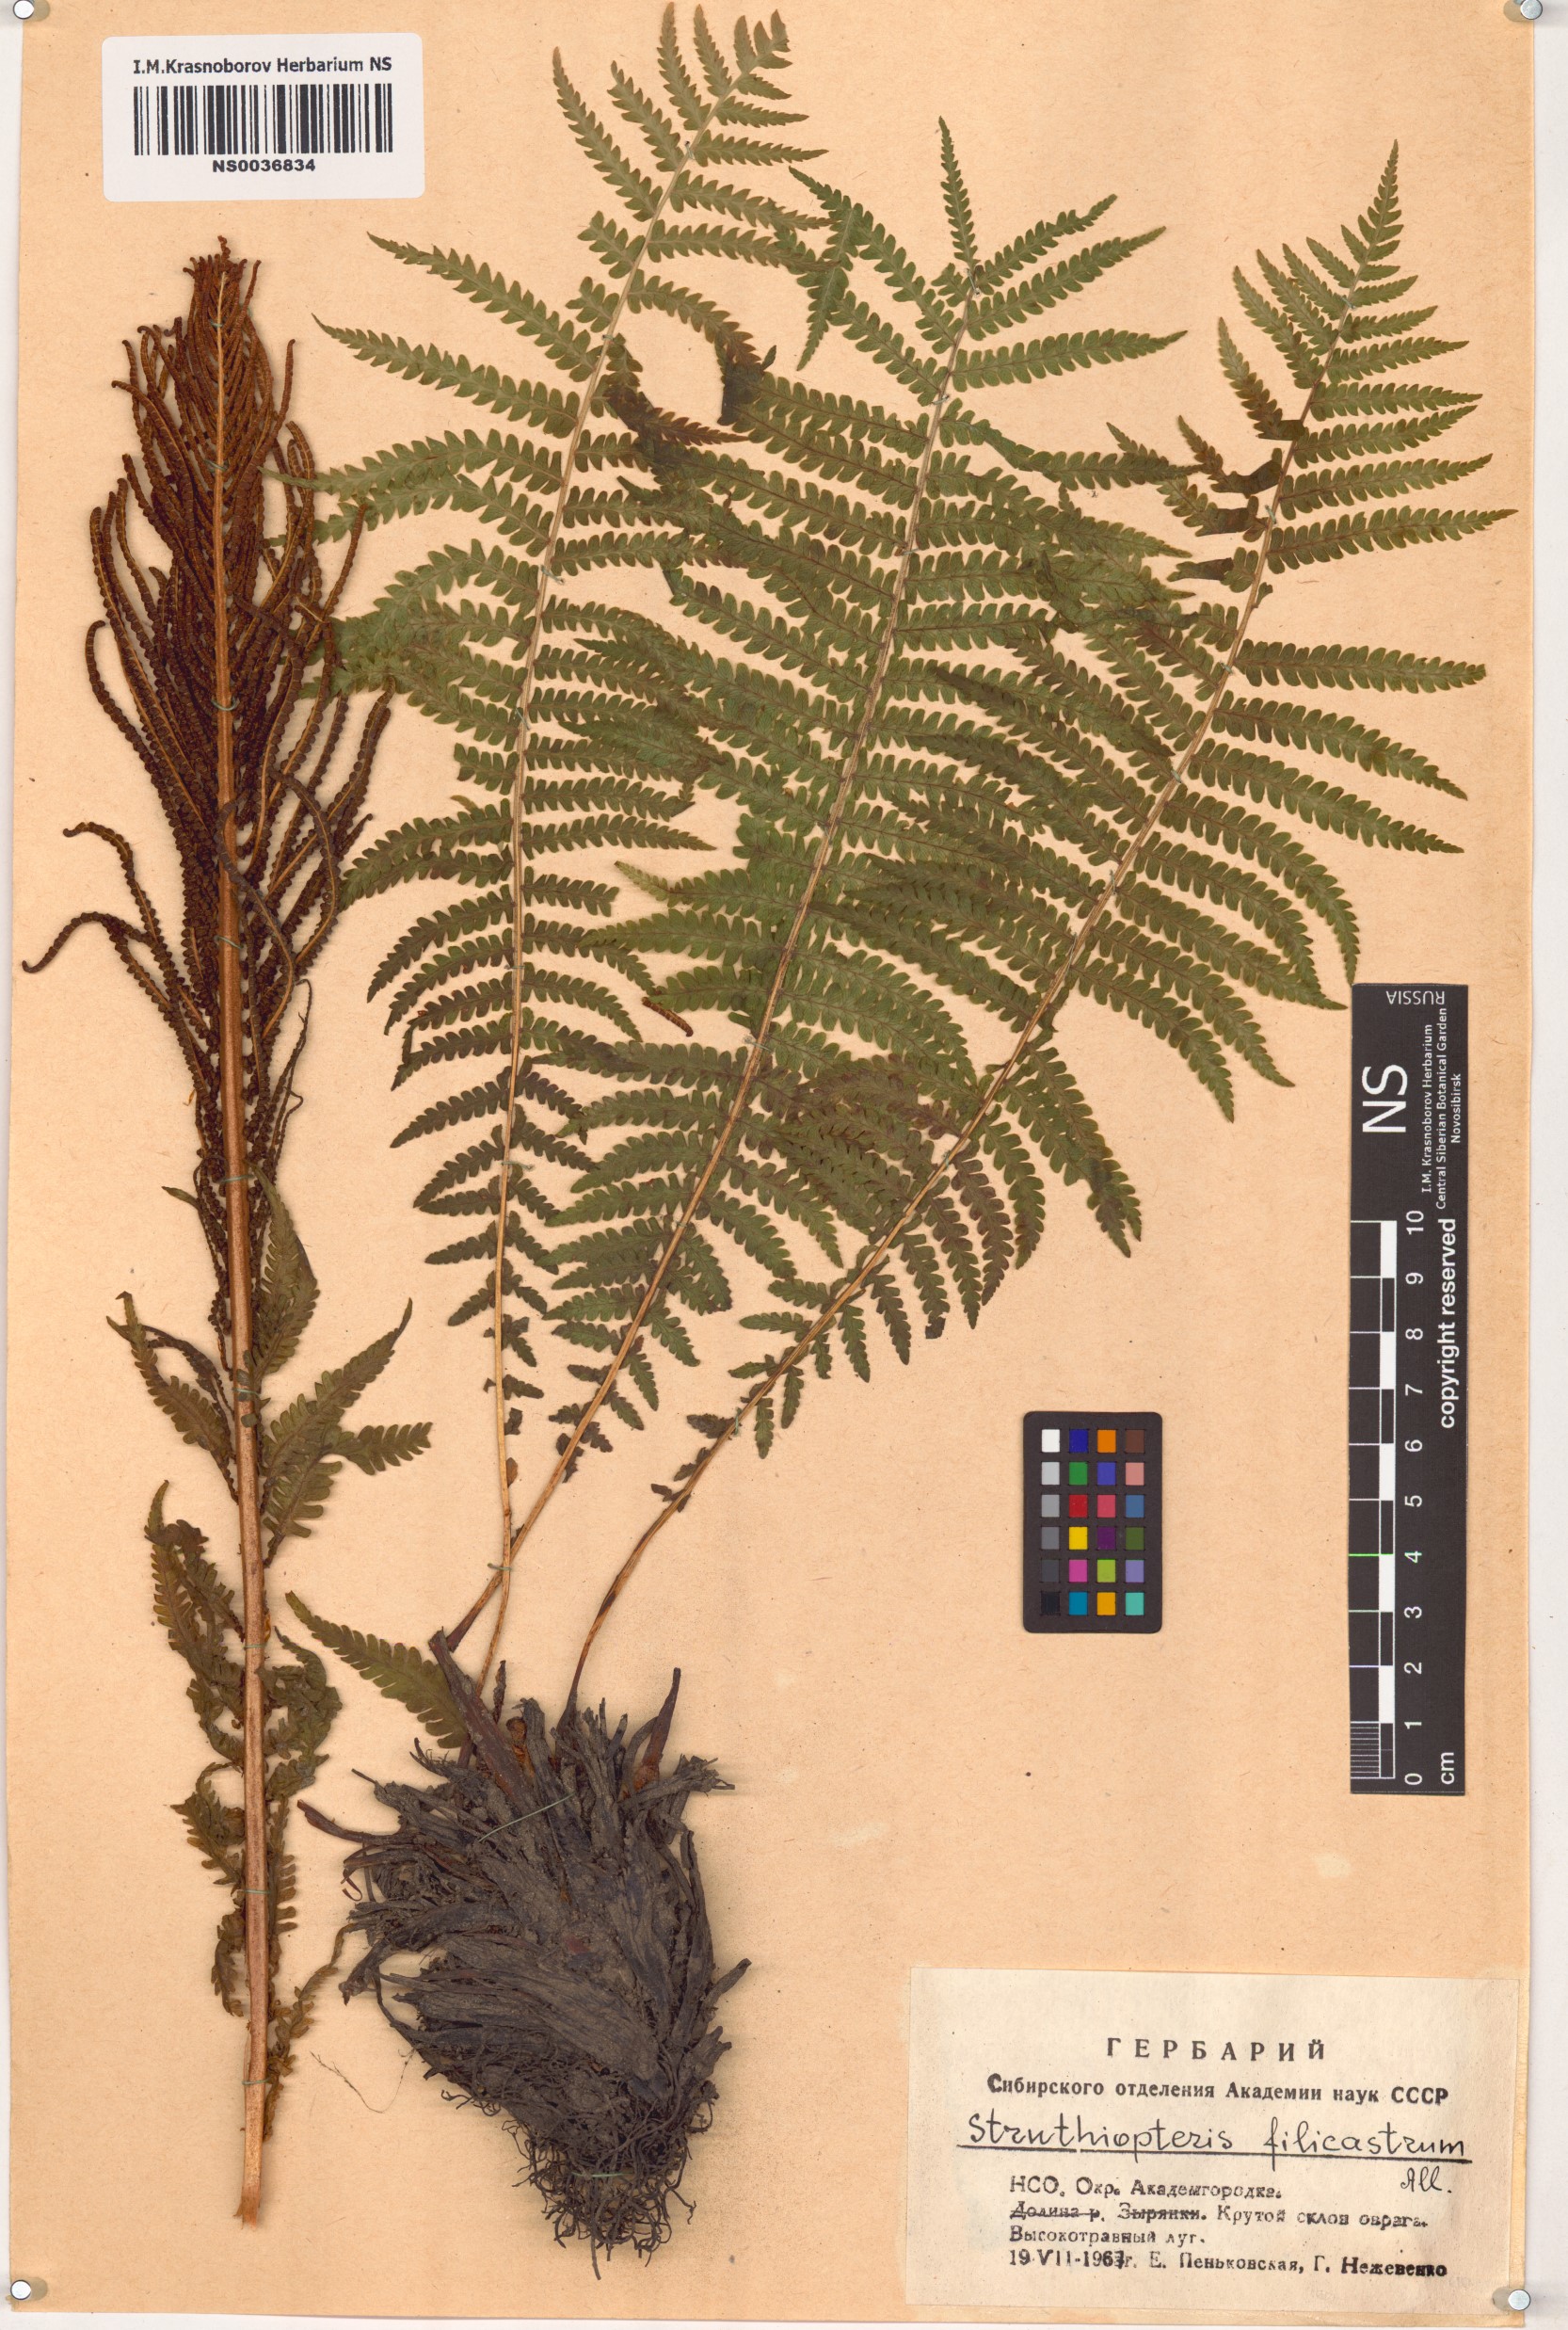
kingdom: Plantae
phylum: Tracheophyta
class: Polypodiopsida
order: Polypodiales
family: Onocleaceae
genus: Matteuccia
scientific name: Matteuccia struthiopteris
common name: Ostrich fern
